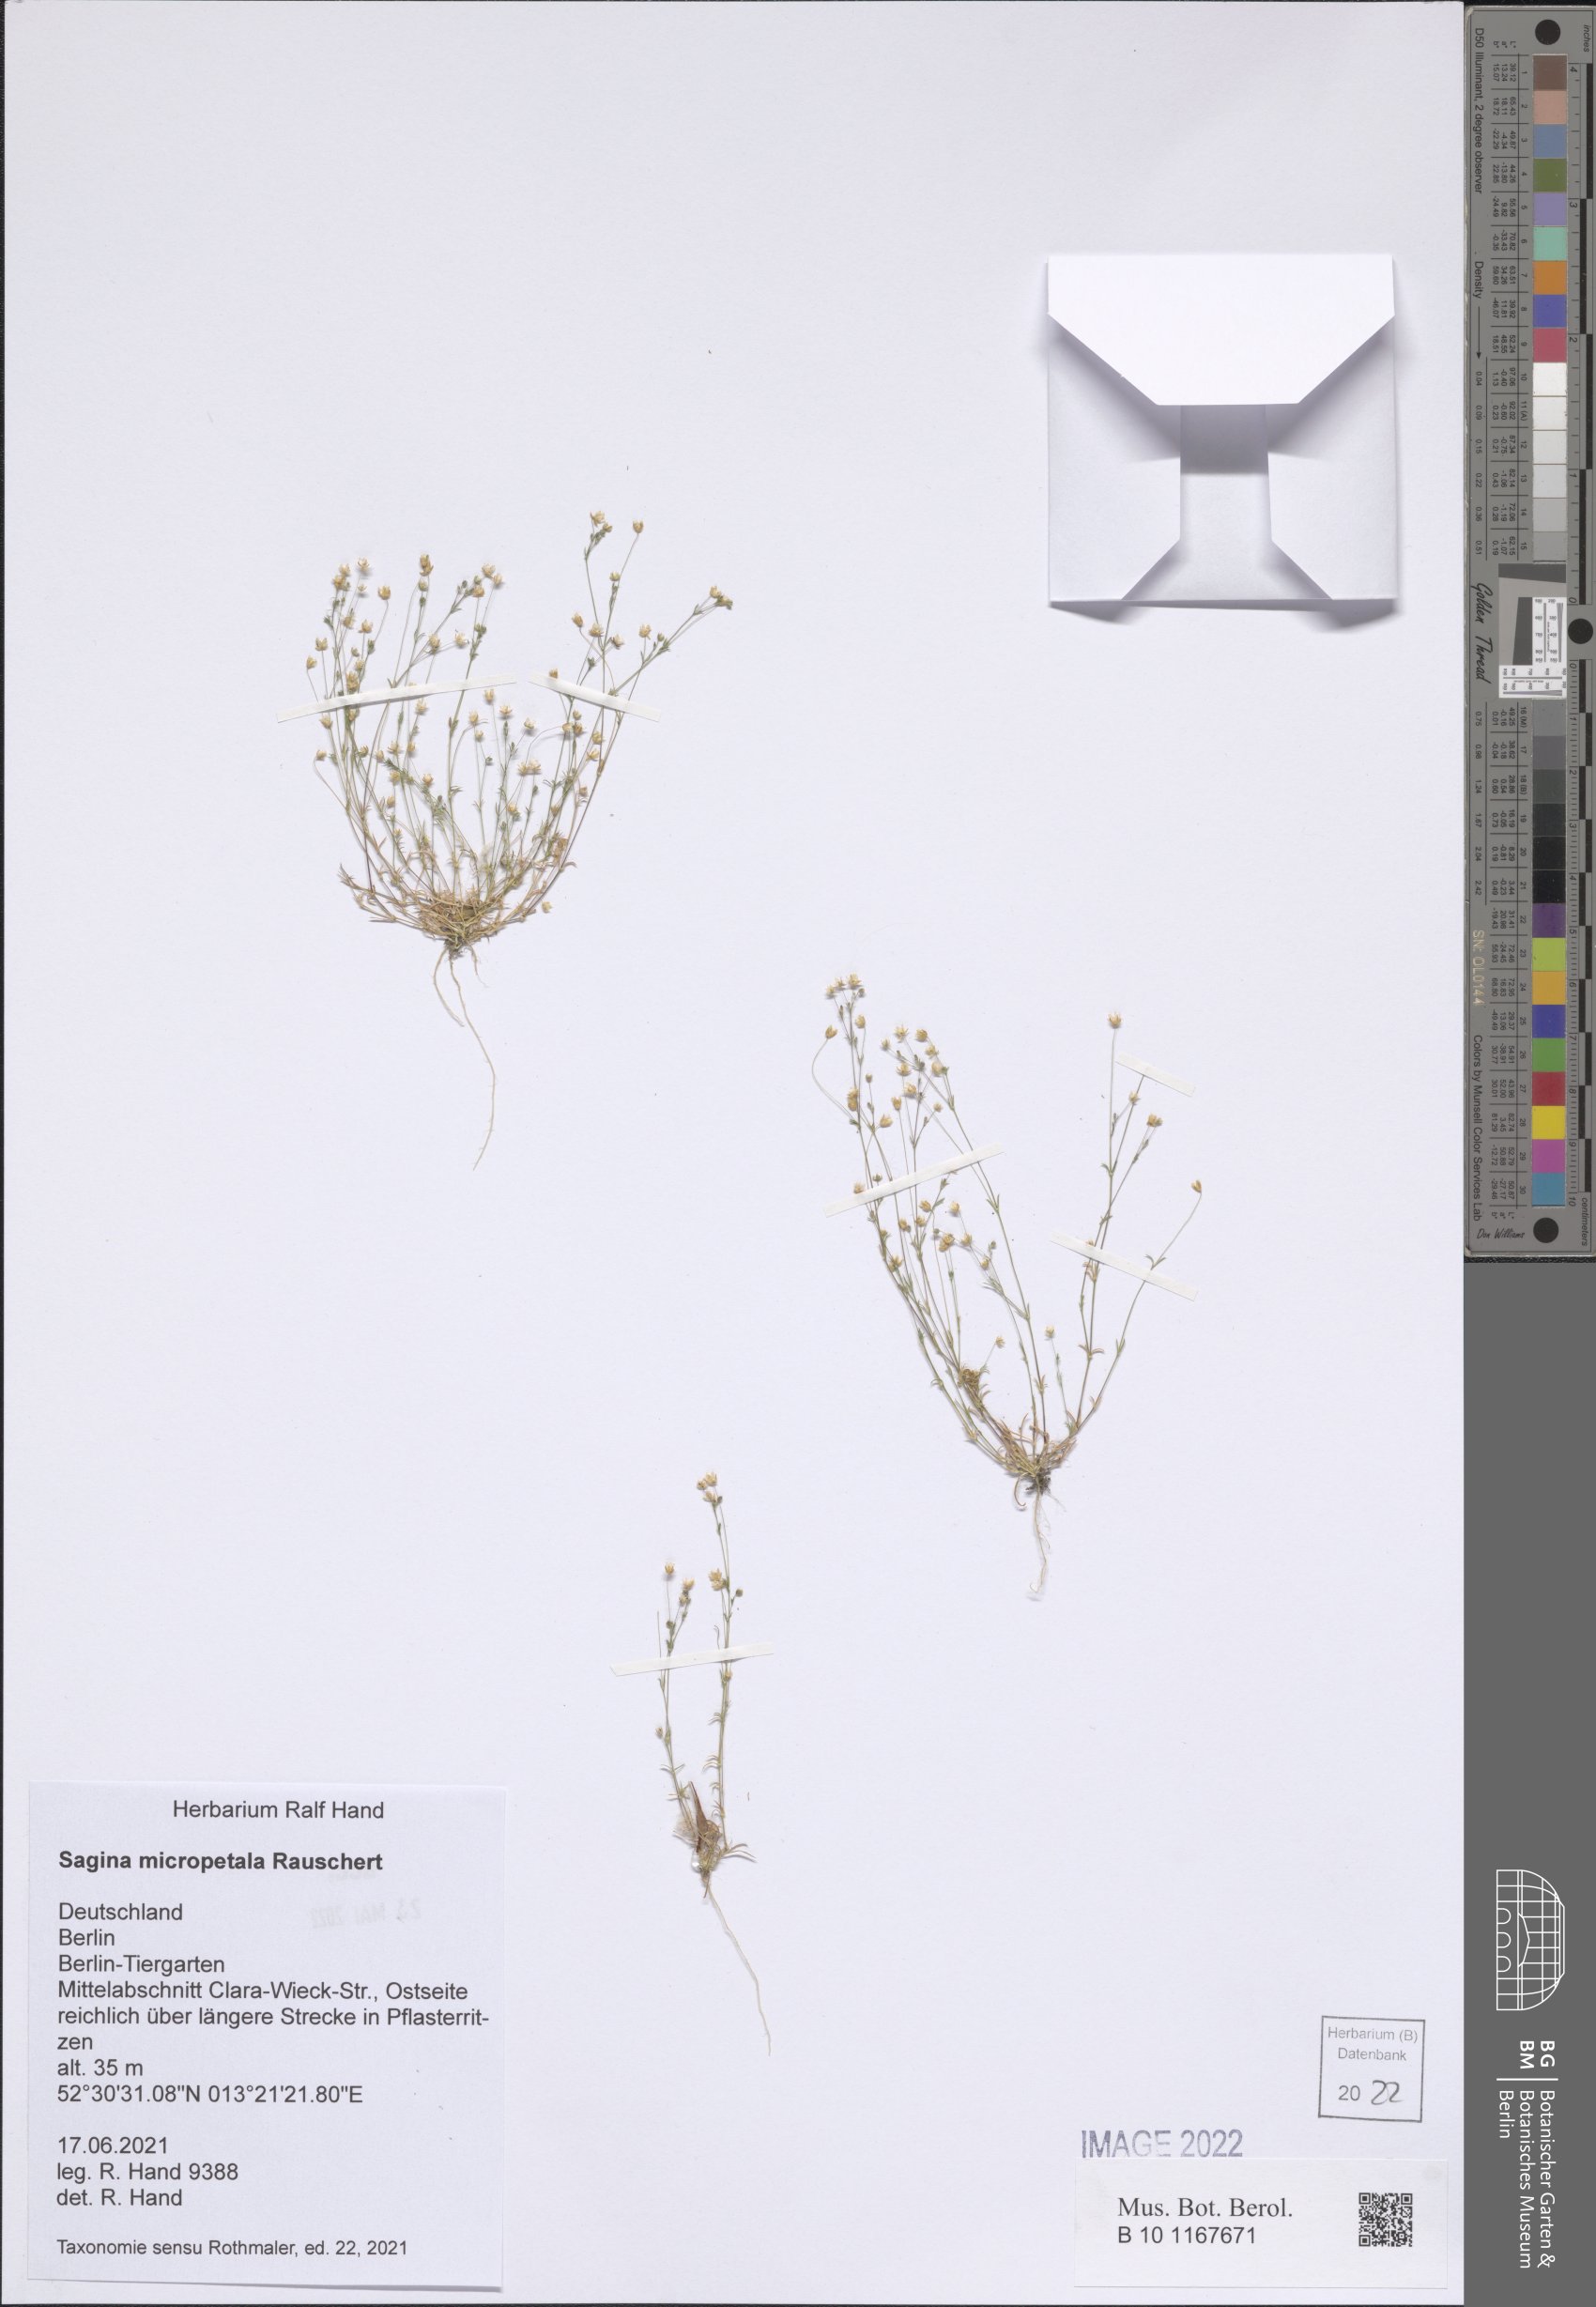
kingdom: Plantae
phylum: Tracheophyta
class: Magnoliopsida
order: Caryophyllales
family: Caryophyllaceae
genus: Sagina
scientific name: Sagina micropetala
